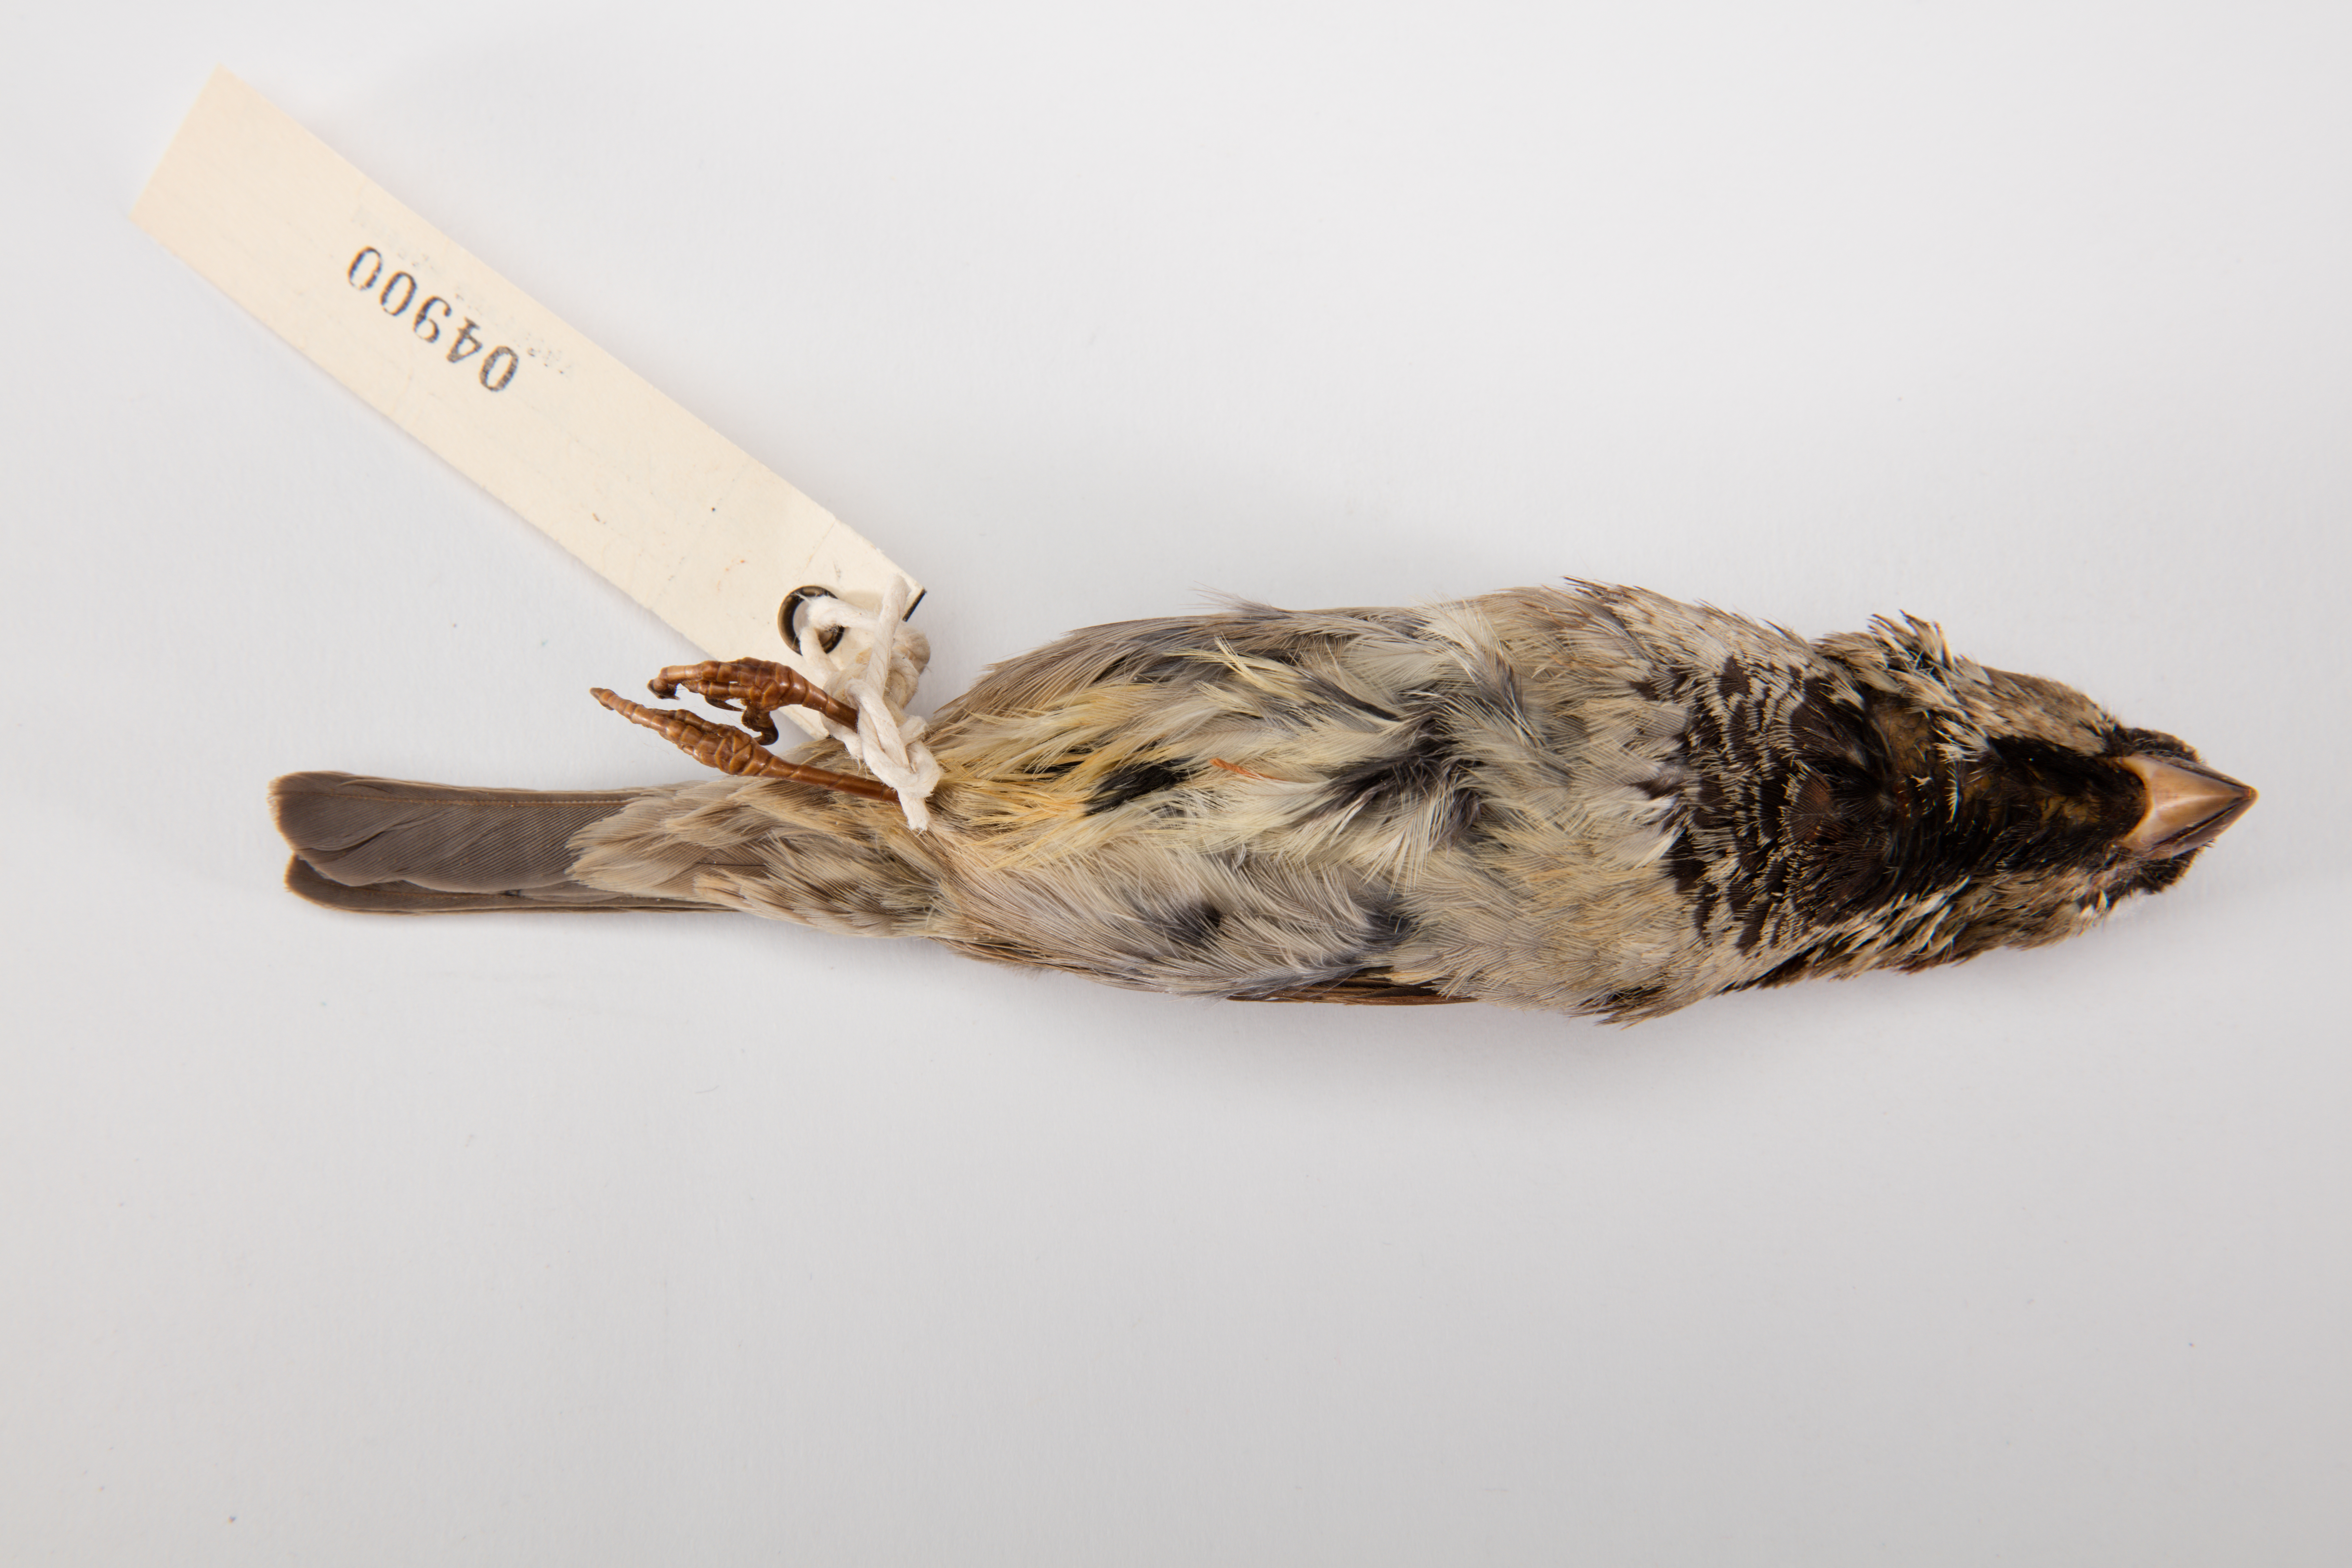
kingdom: Animalia
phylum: Chordata
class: Aves
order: Passeriformes
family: Passeridae
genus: Passer
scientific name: Passer domesticus
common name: House sparrow
